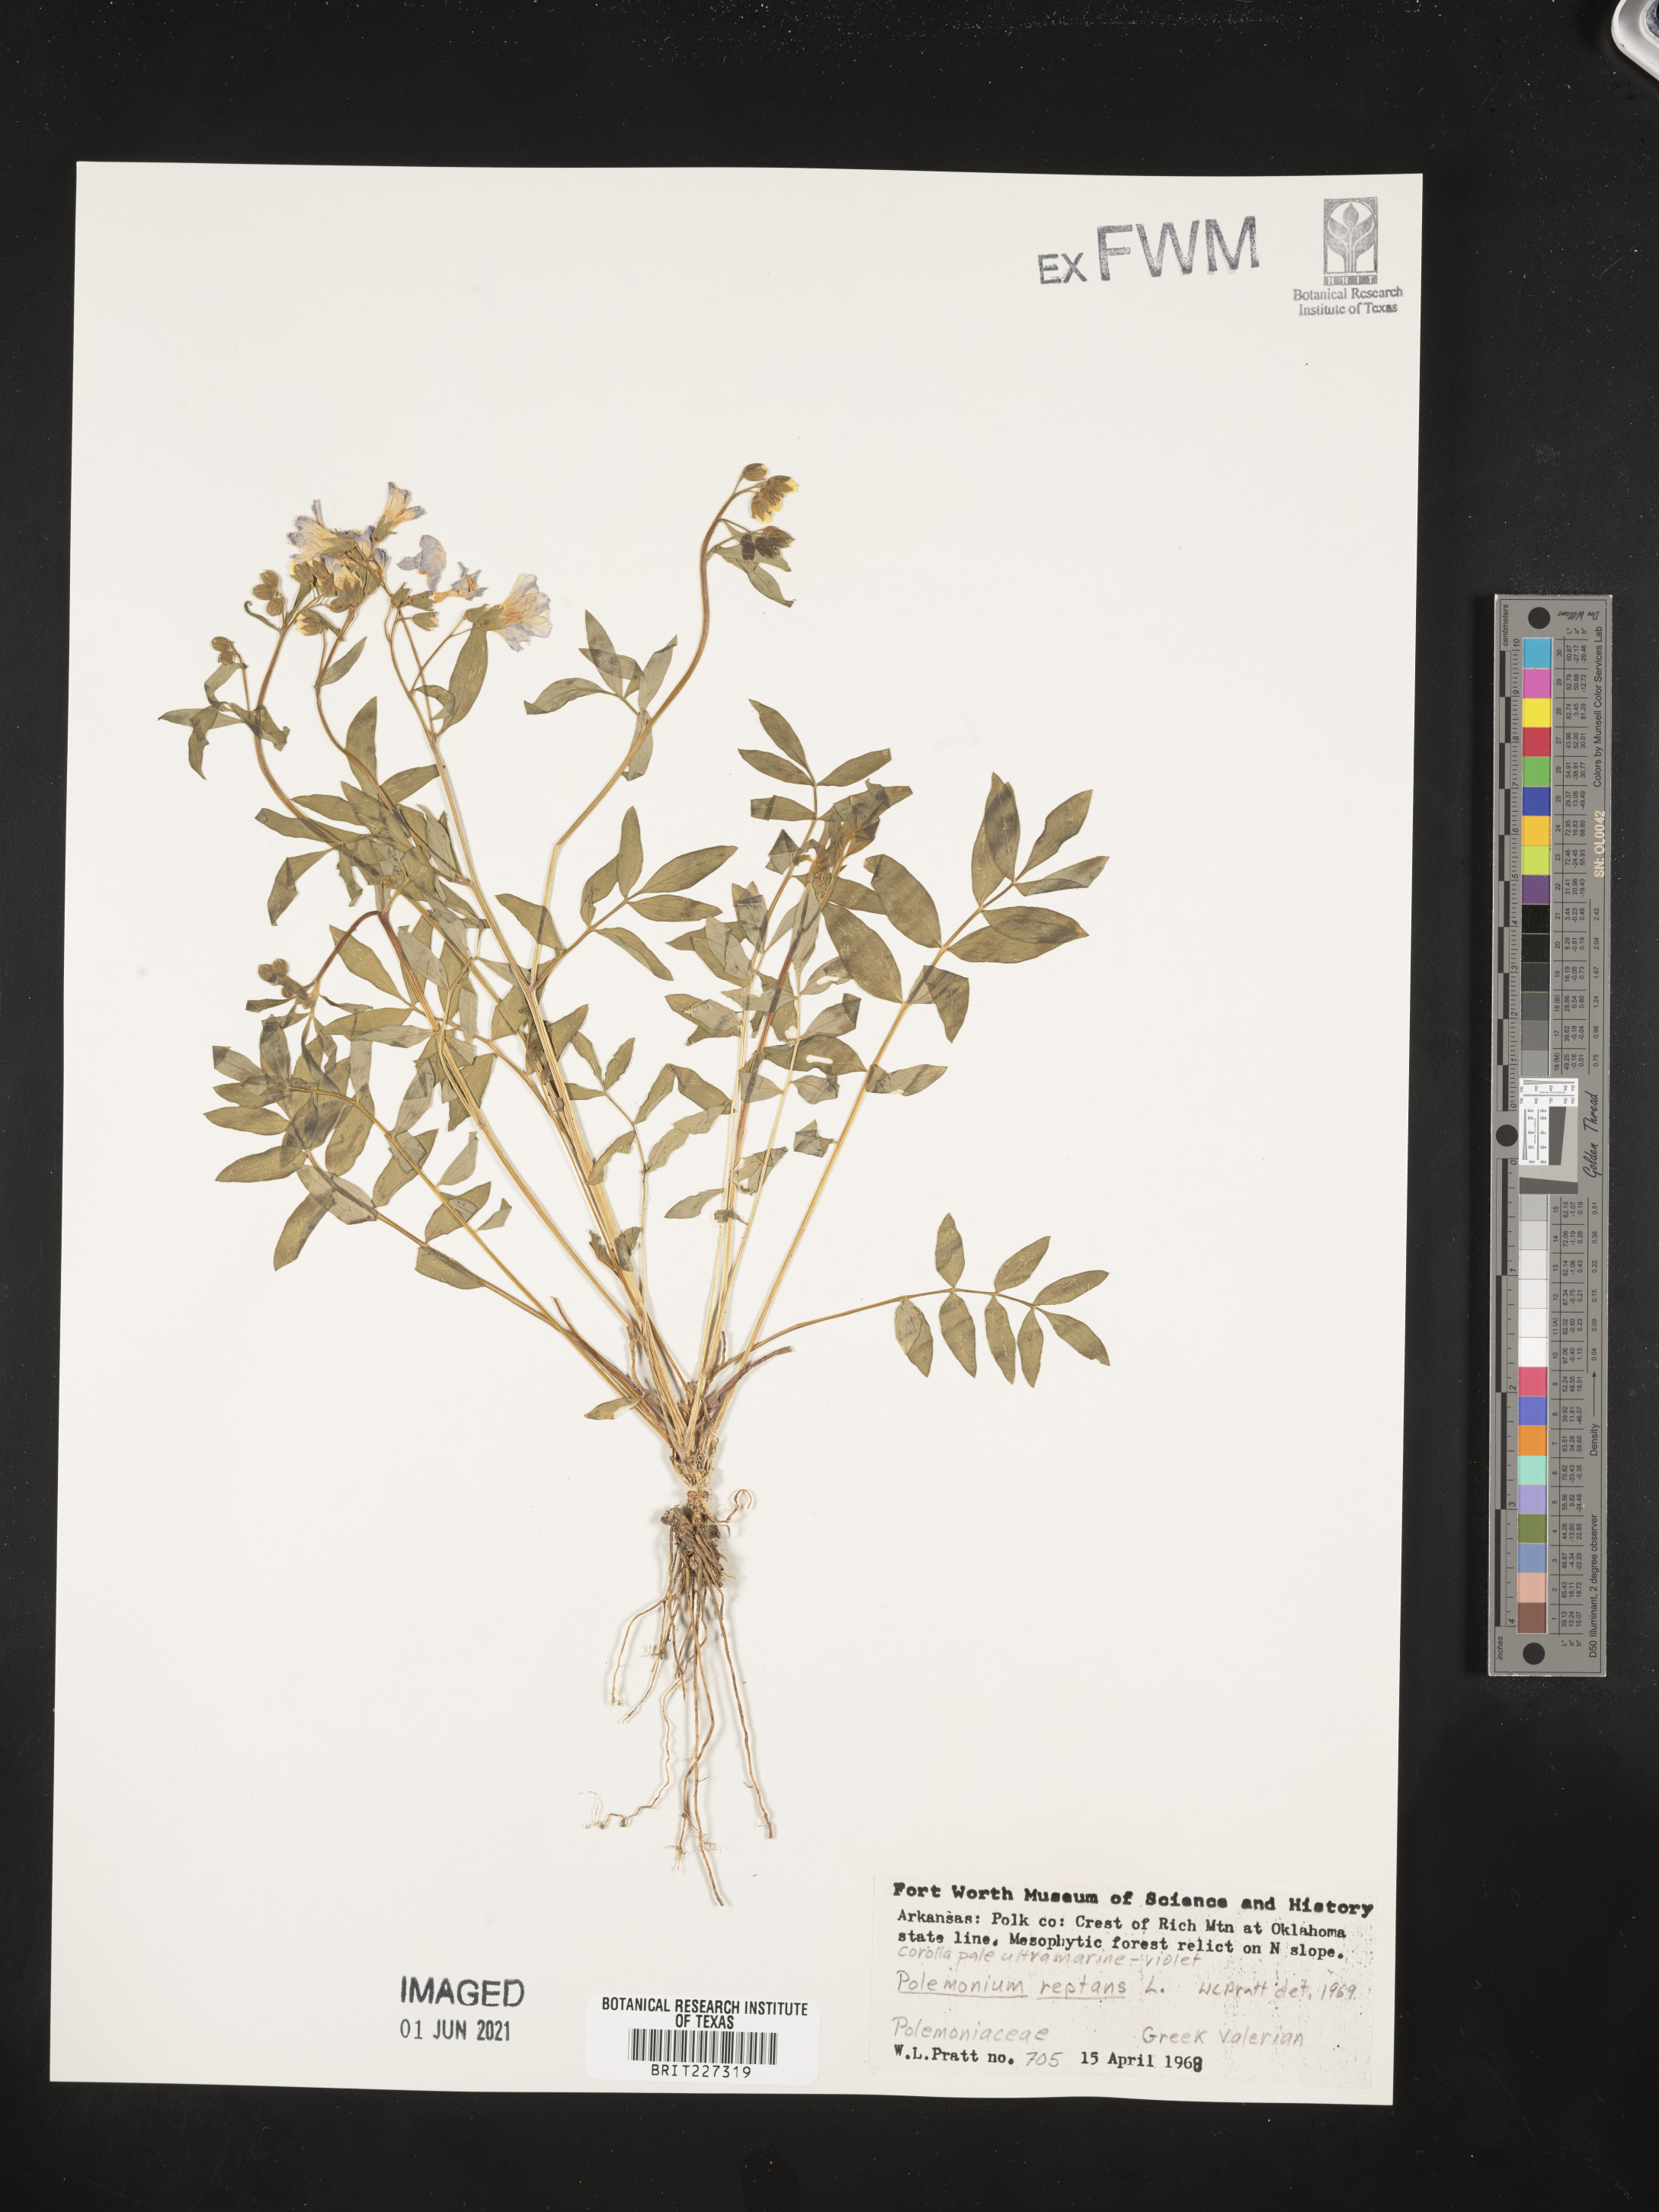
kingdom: Plantae
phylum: Tracheophyta
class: Magnoliopsida
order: Ericales
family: Polemoniaceae
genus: Polemonium
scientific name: Polemonium reptans
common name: Creeping jacob's-ladder
